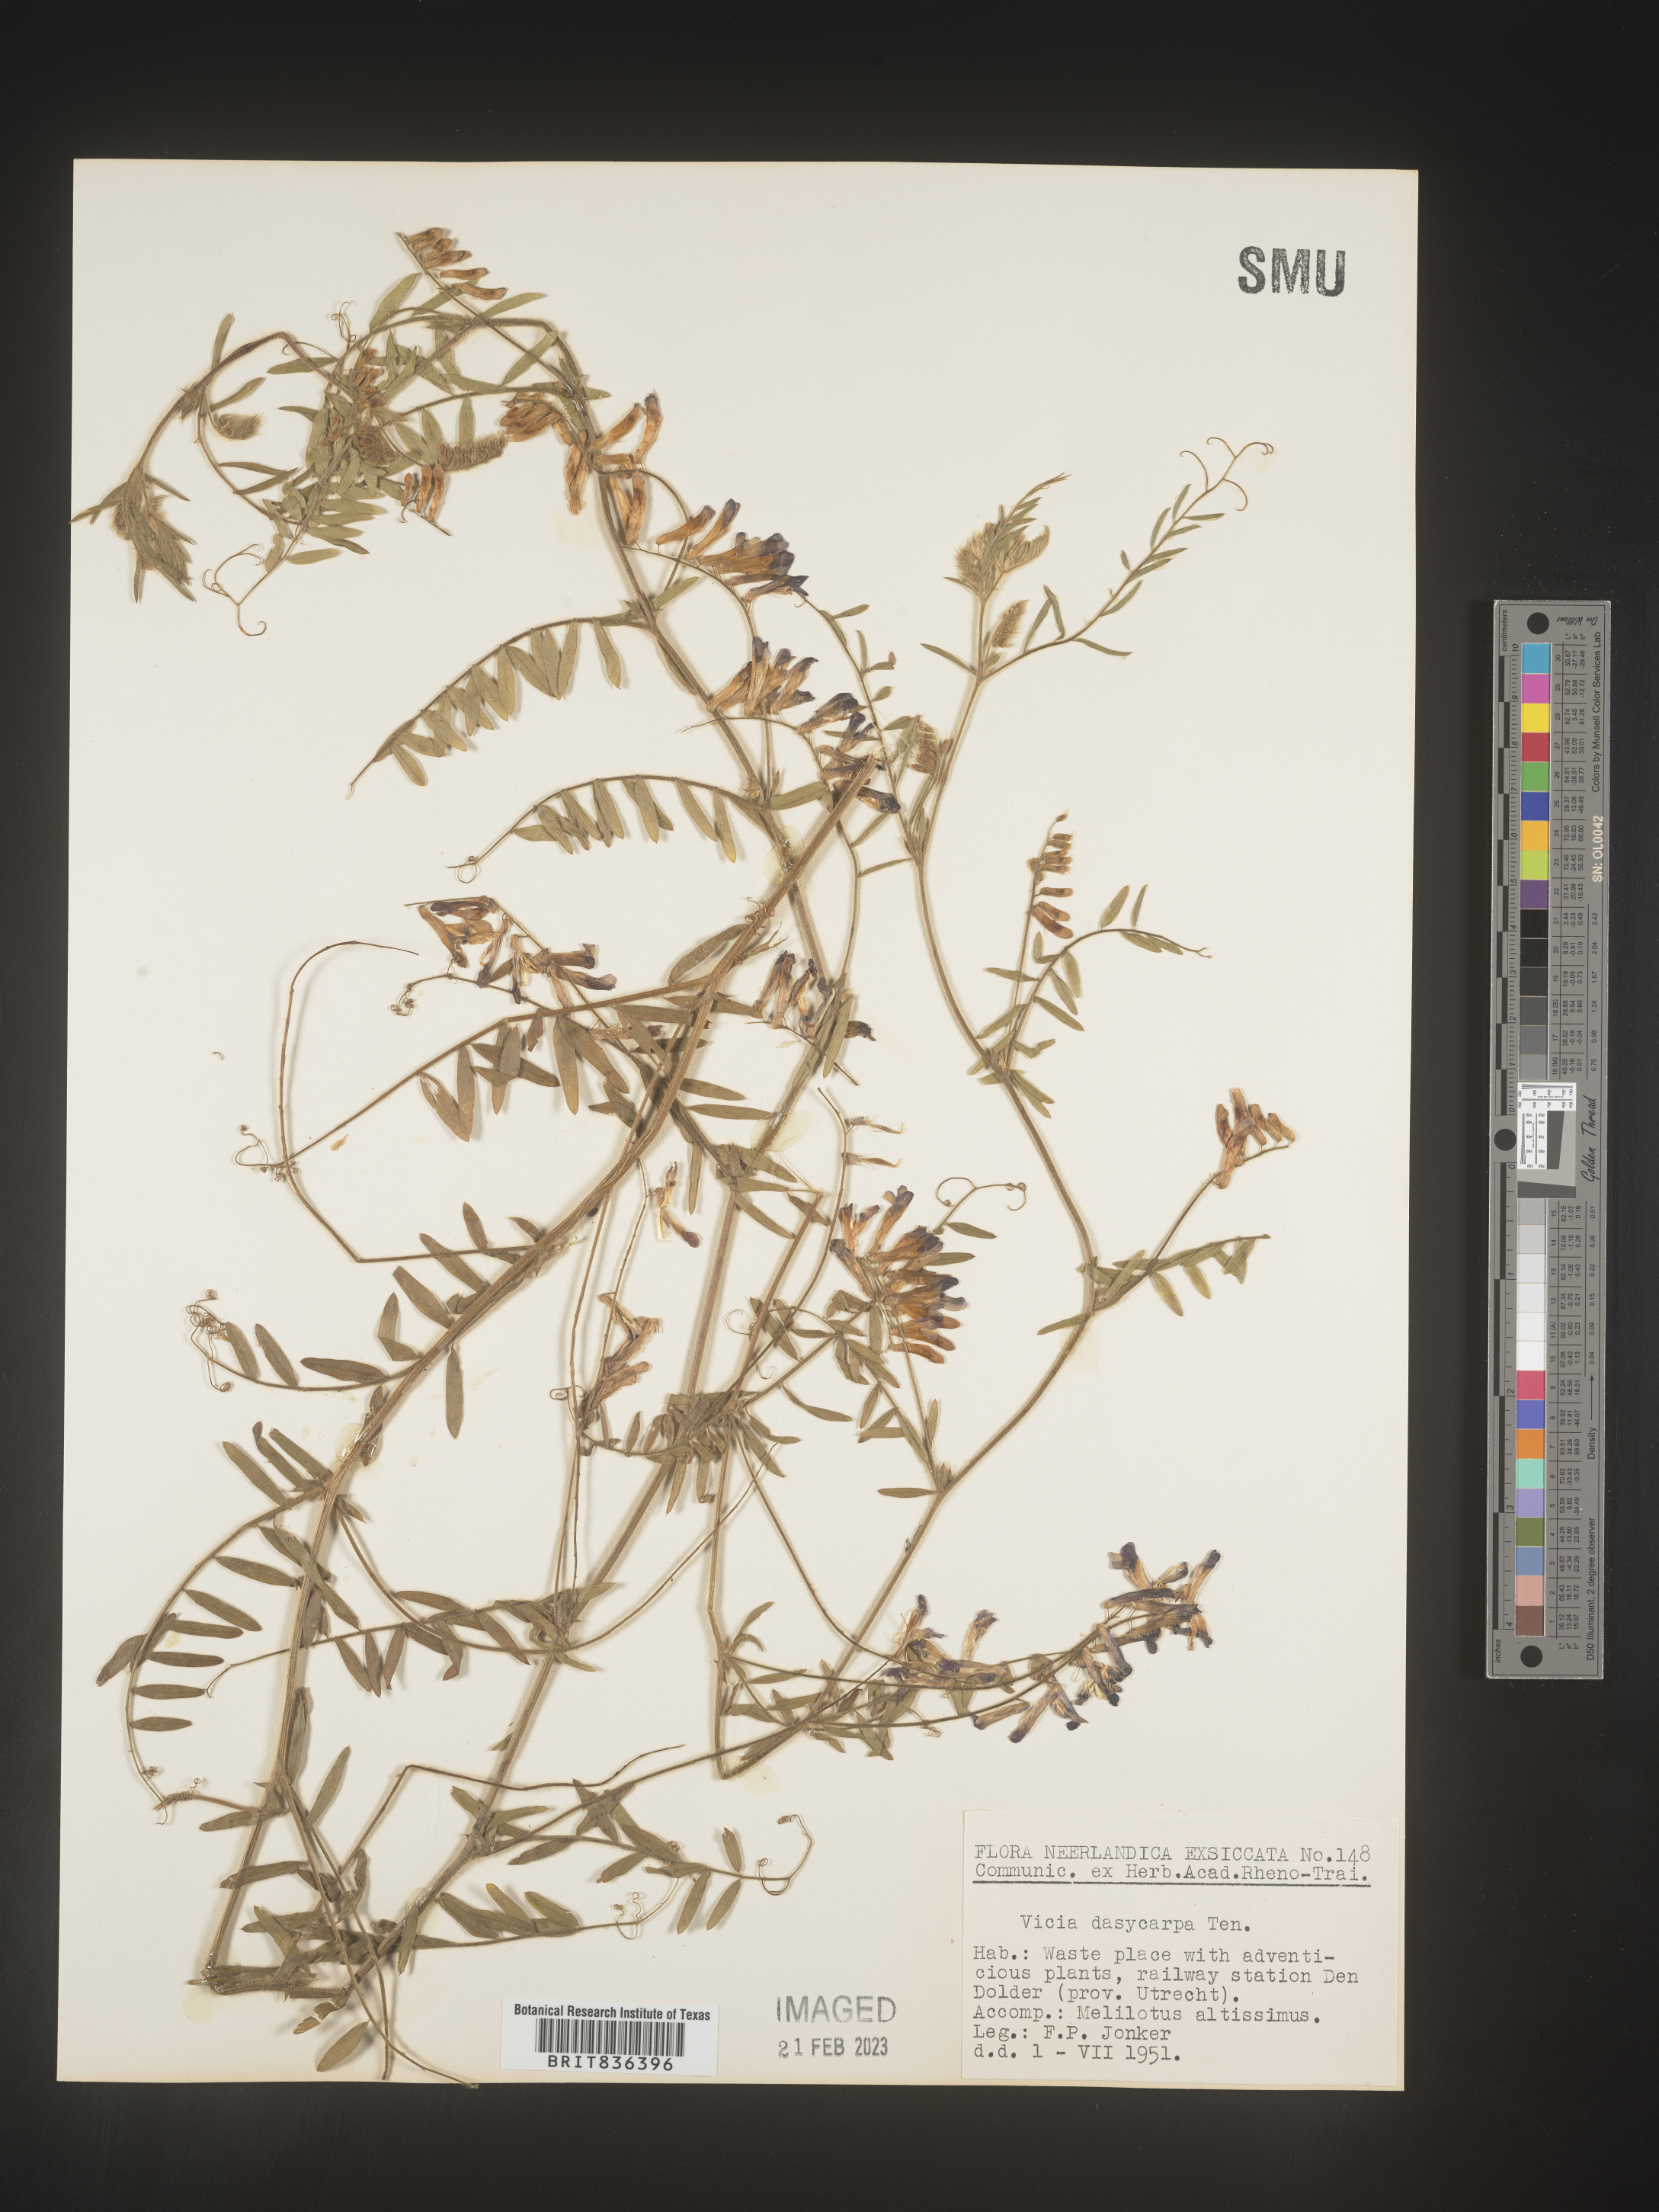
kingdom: Plantae
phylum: Tracheophyta
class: Magnoliopsida
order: Fabales
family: Fabaceae
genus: Vicia
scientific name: Vicia
